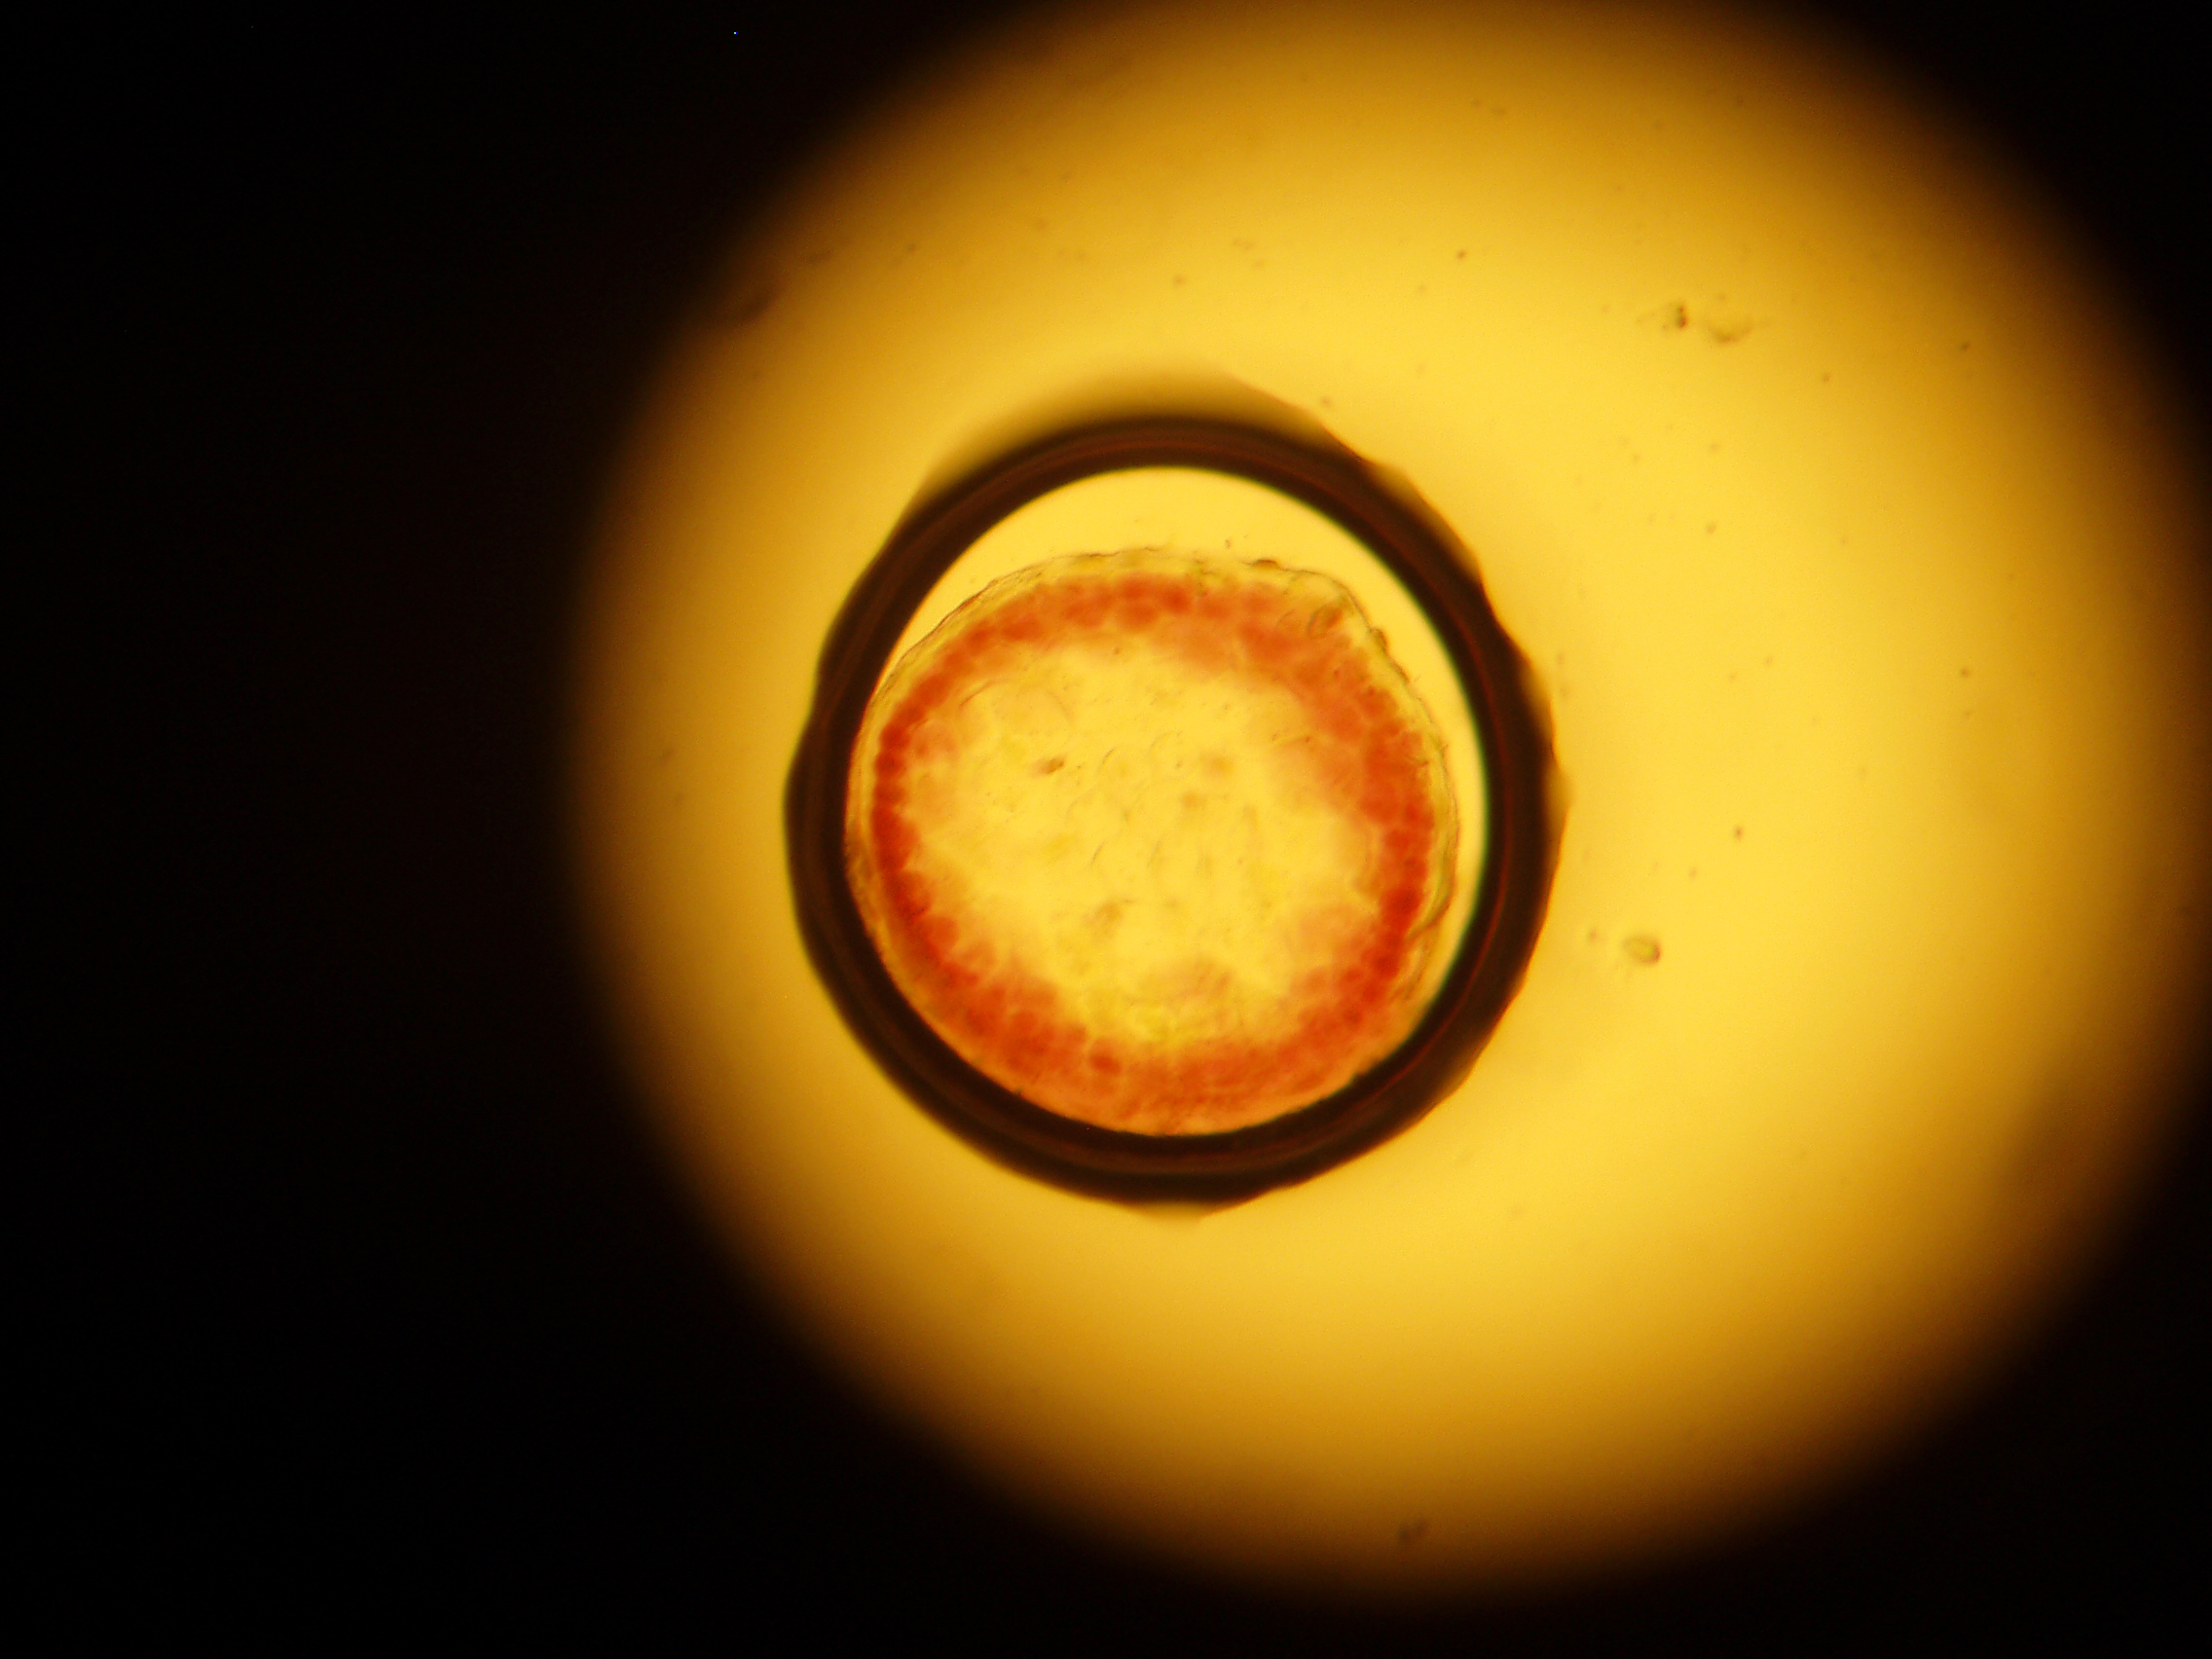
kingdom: Plantae
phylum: Rhodophyta
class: Florideophyceae
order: Gigartinales
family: Solieriaceae
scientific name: Solieriaceae
